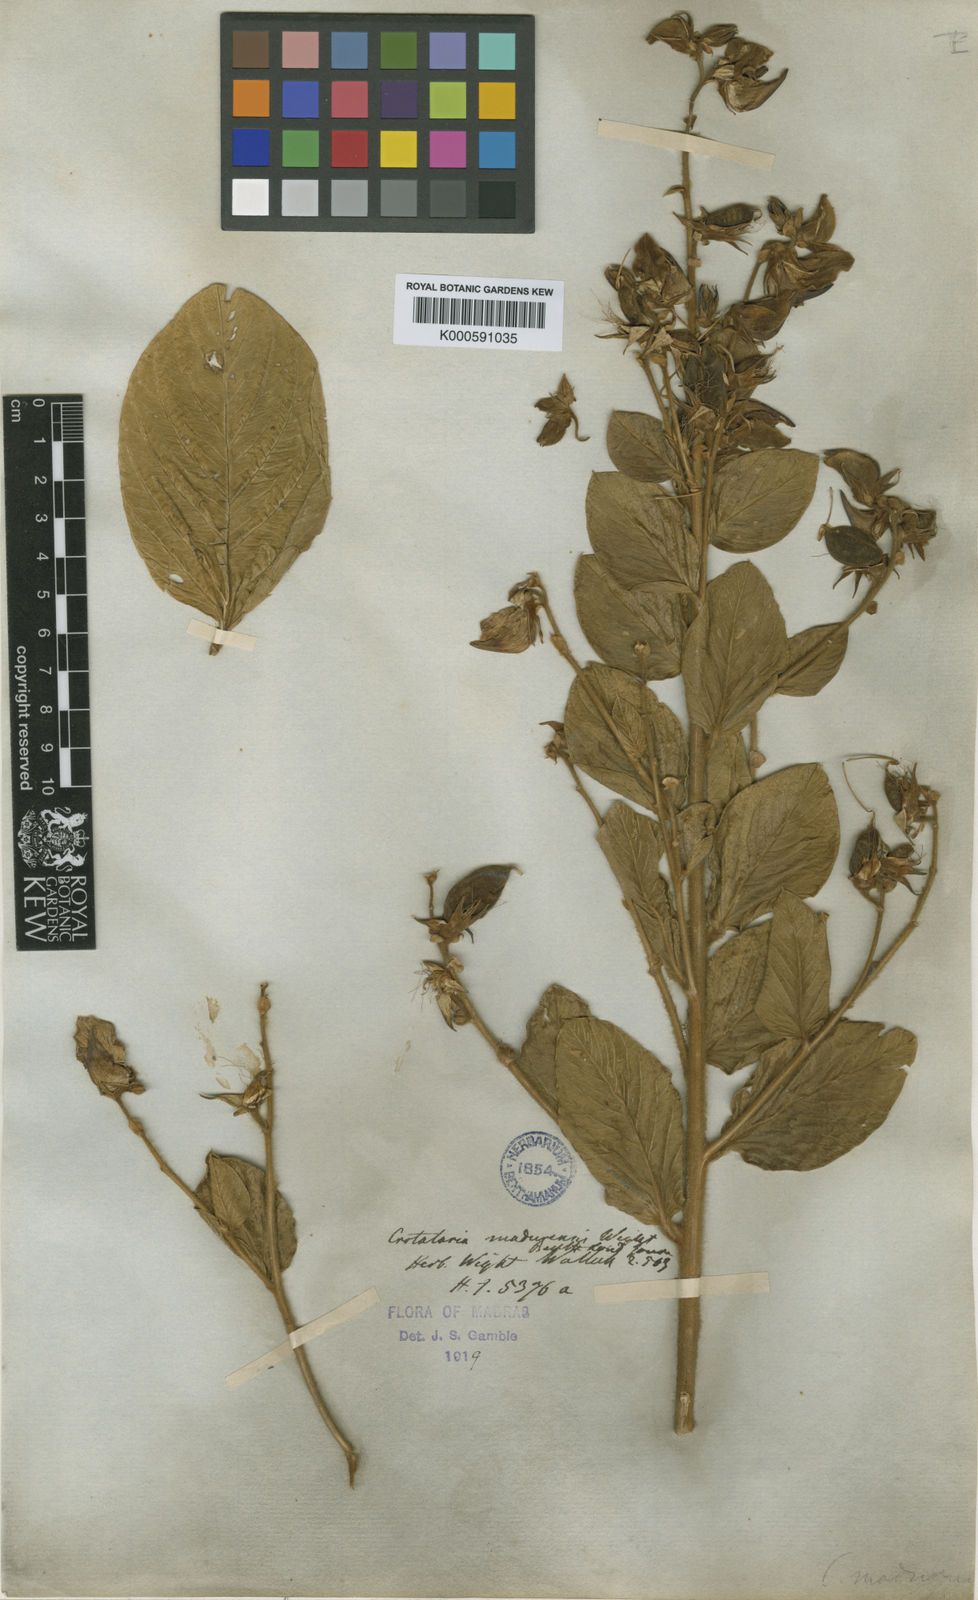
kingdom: Plantae
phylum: Tracheophyta
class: Magnoliopsida
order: Fabales
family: Fabaceae
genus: Crotalaria
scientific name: Crotalaria
